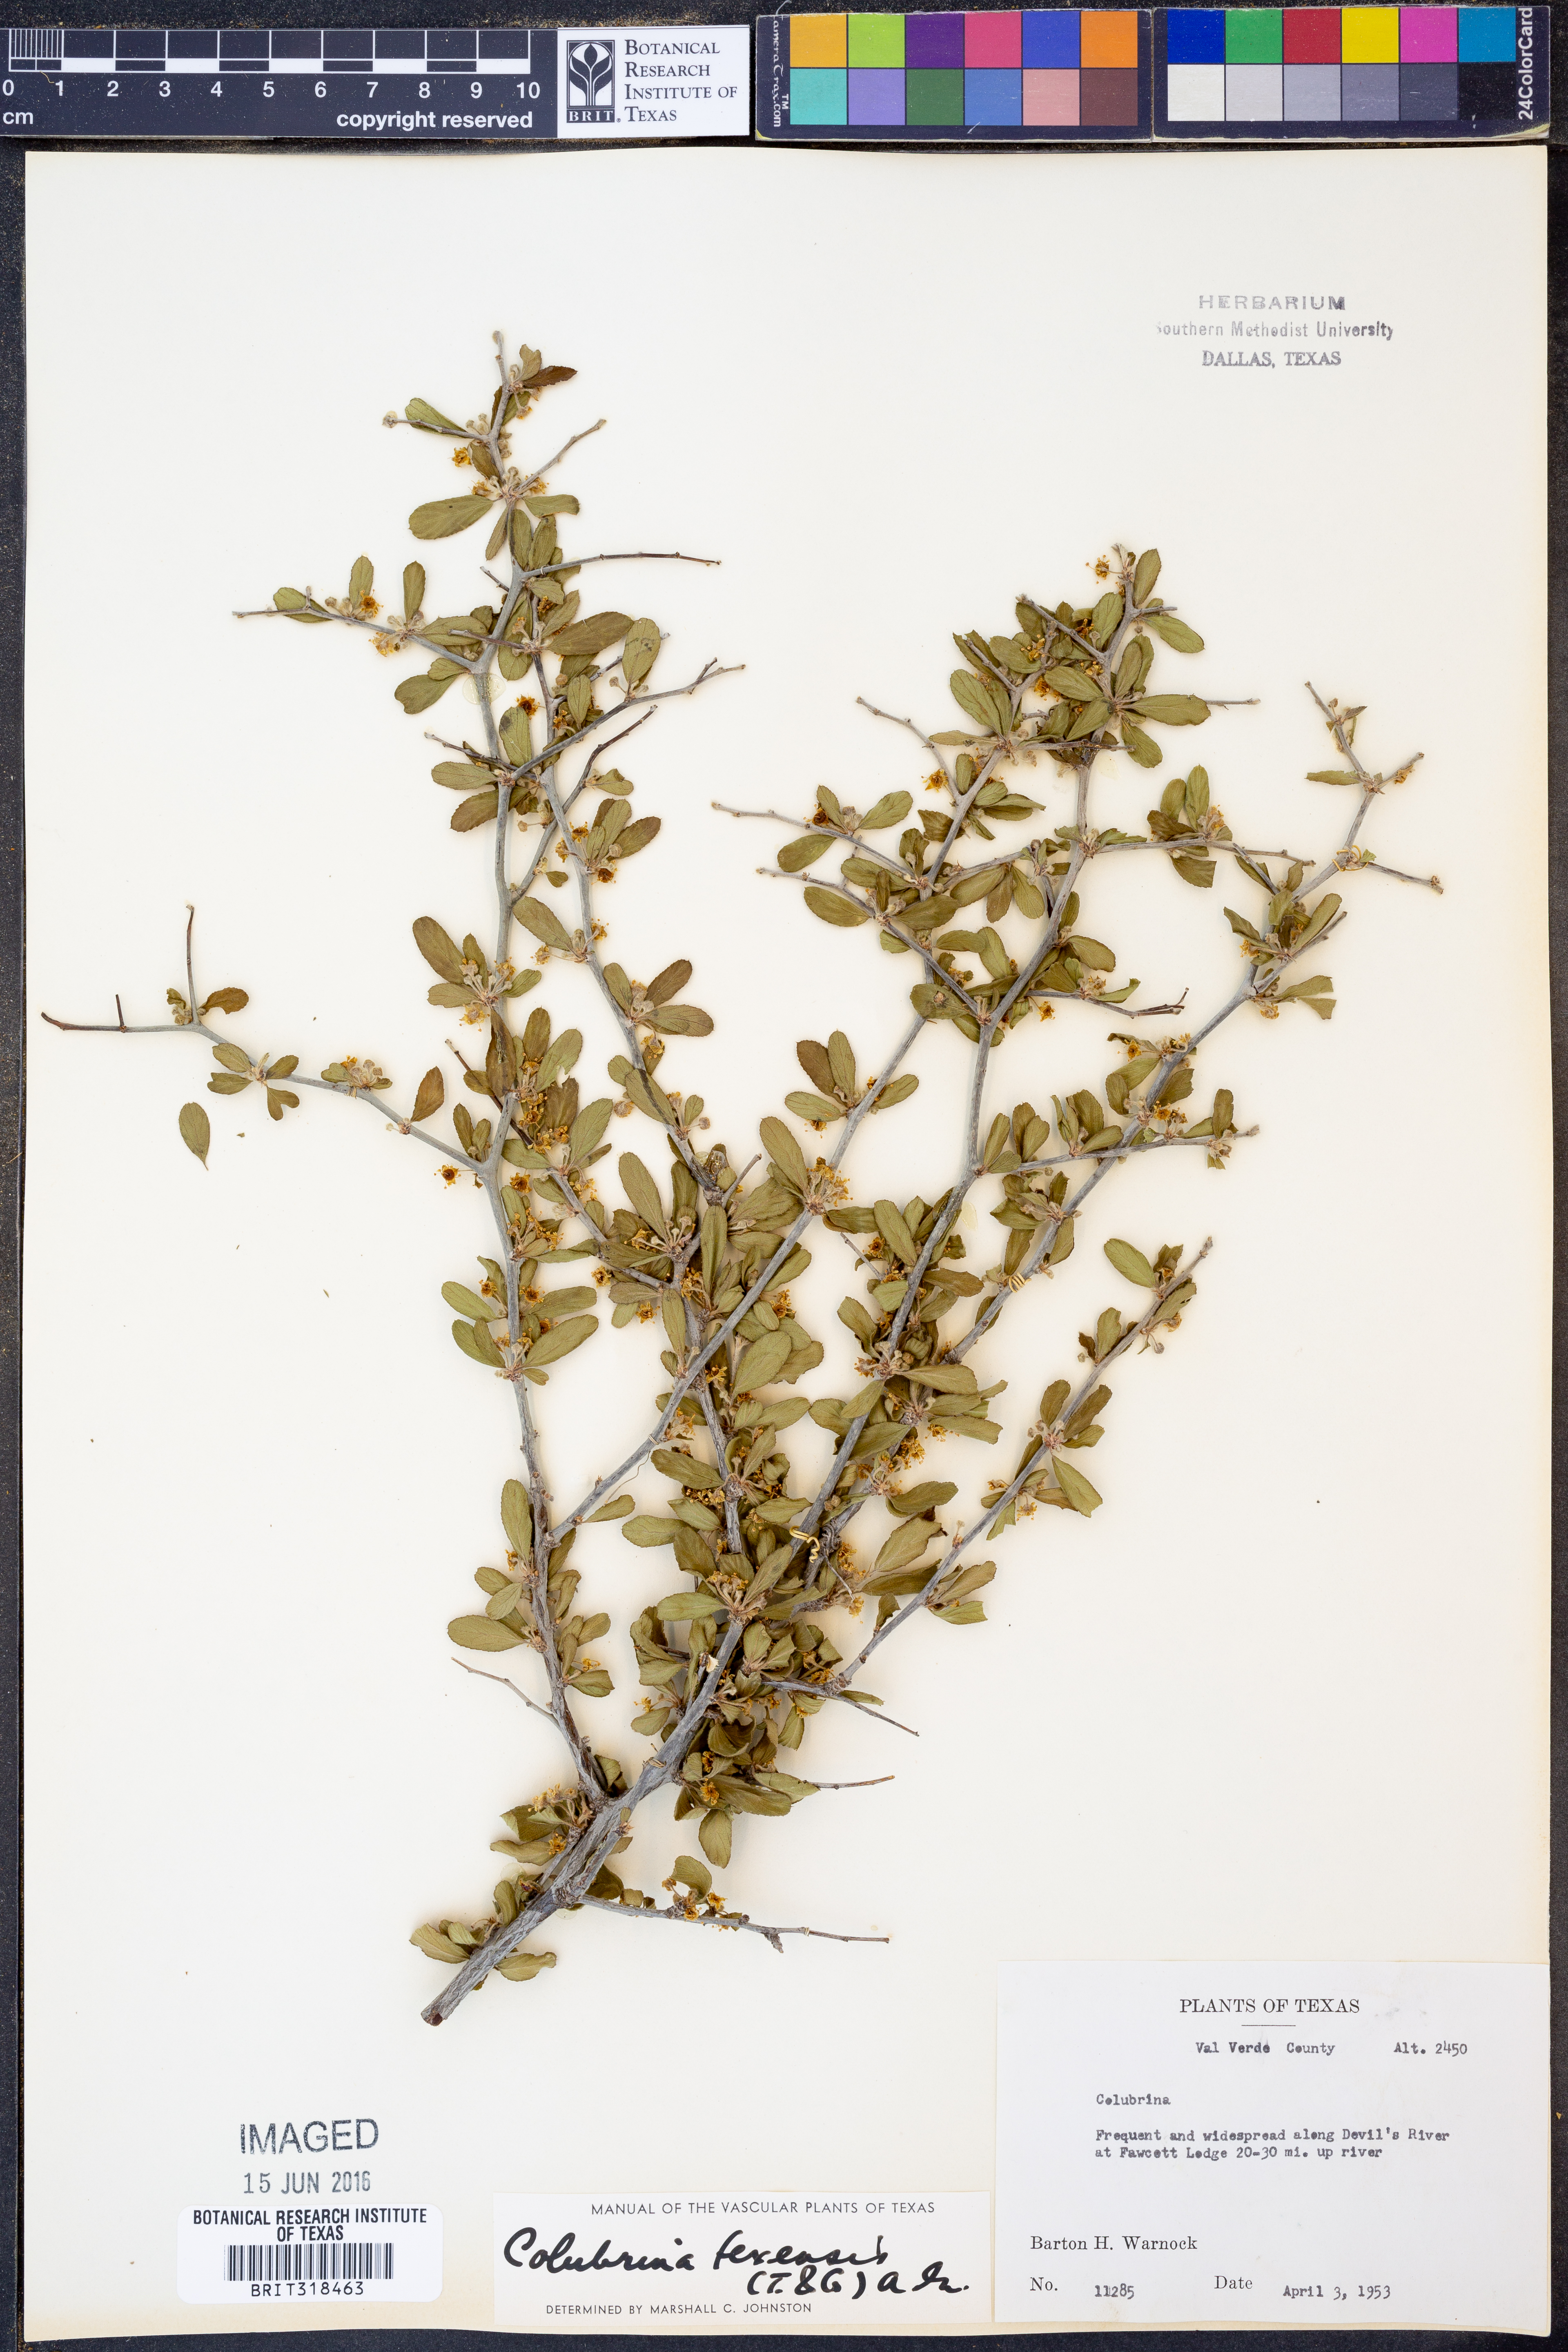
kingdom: Plantae
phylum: Tracheophyta
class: Magnoliopsida
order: Rosales
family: Rhamnaceae
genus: Colubrina
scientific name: Colubrina texensis
